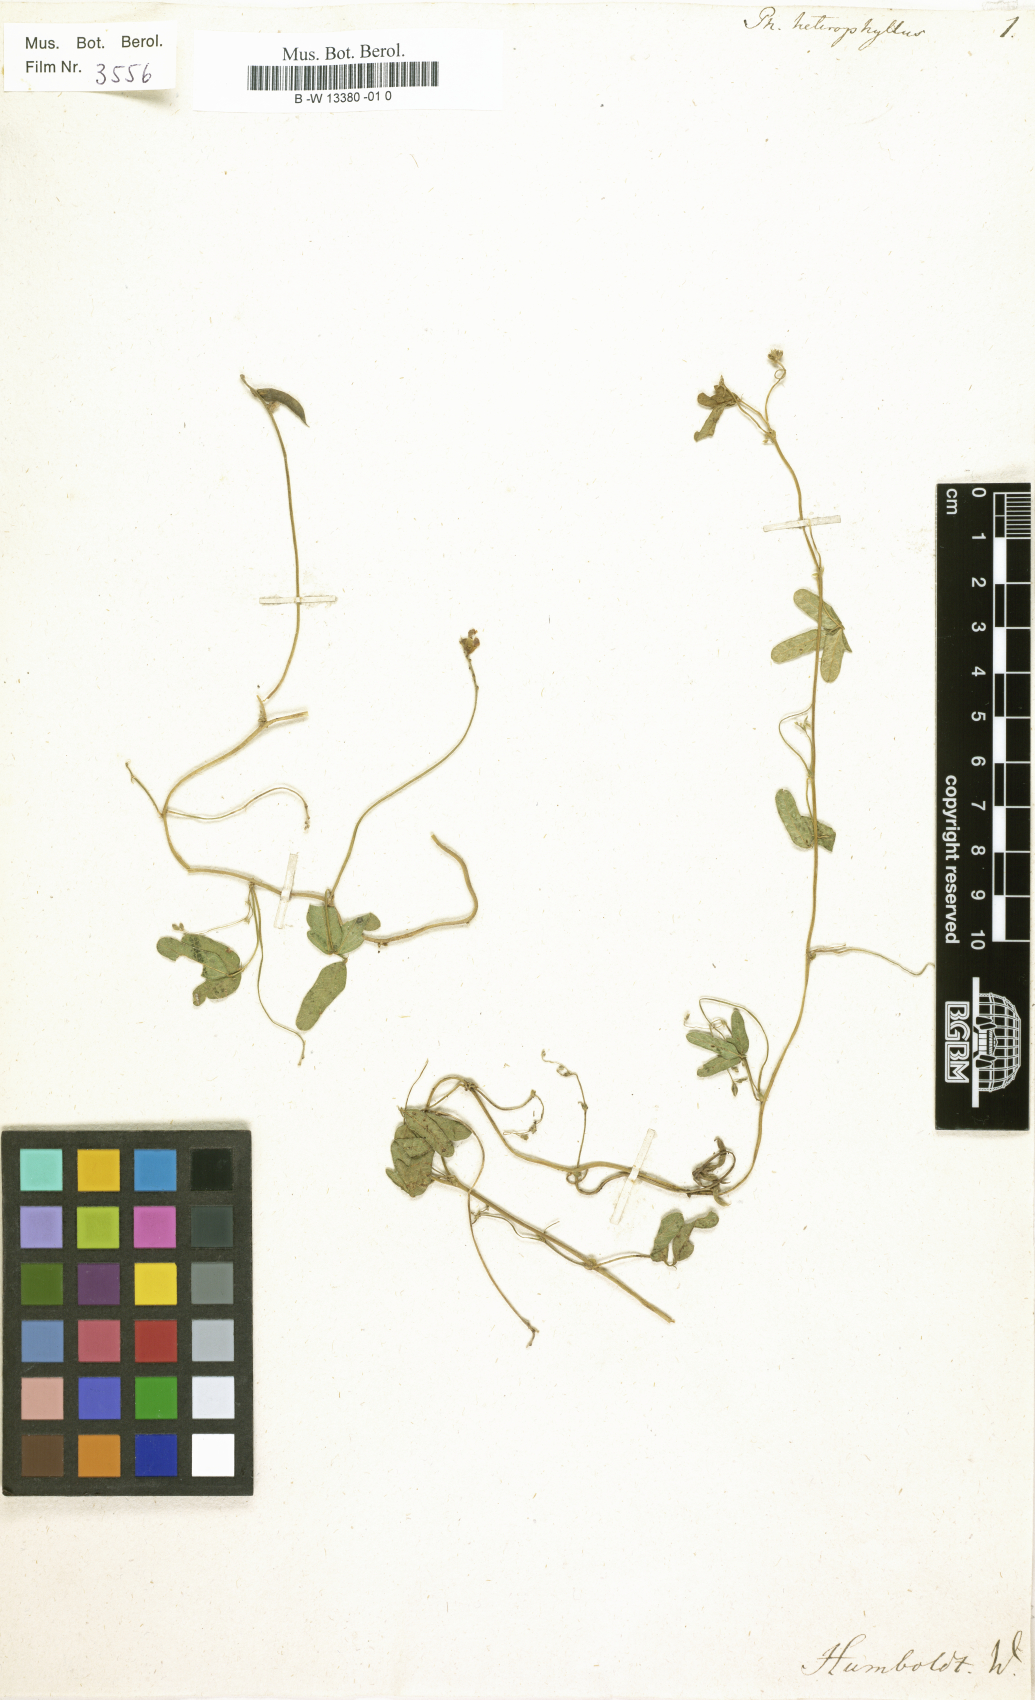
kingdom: Plantae
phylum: Tracheophyta
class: Magnoliopsida
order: Fabales
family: Fabaceae
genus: Macroptilium
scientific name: Macroptilium gibbosifolium
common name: Variableleaf bushbean
